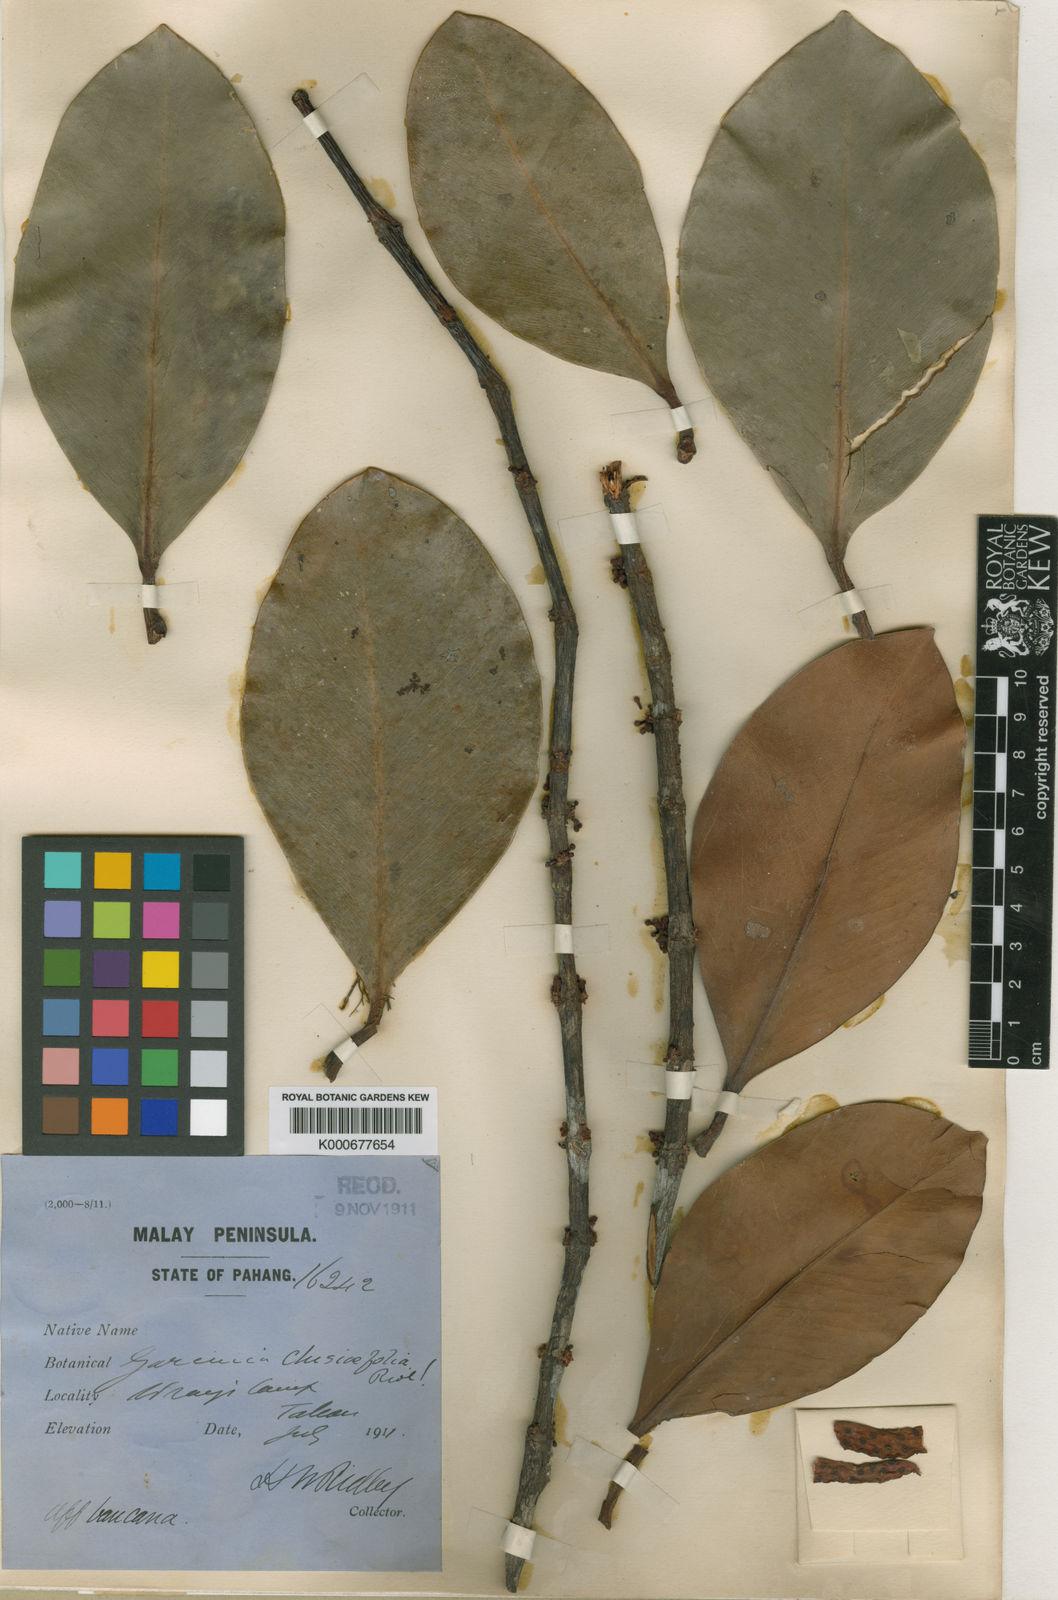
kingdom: Plantae
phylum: Tracheophyta
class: Magnoliopsida
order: Malpighiales
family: Clusiaceae
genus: Garcinia
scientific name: Garcinia clusiifolia
